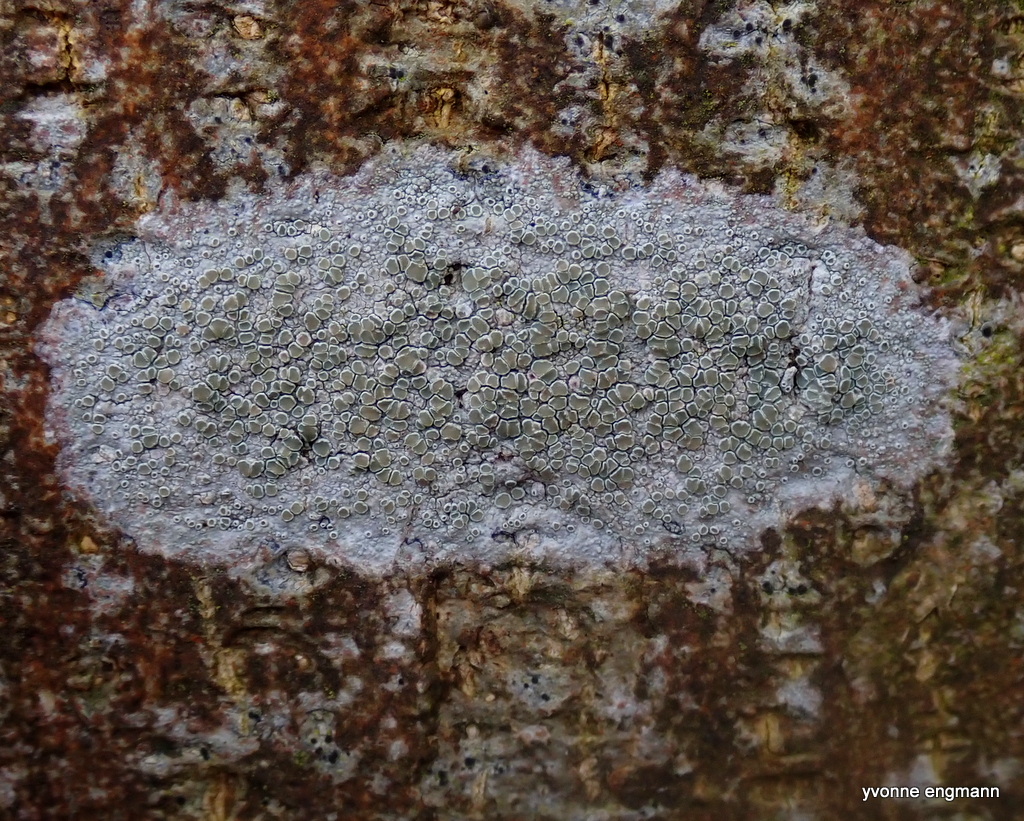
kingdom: Fungi
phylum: Ascomycota
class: Lecanoromycetes
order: Lecanorales
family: Lecanoraceae
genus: Lecanora
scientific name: Lecanora chlarotera
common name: brun kantskivelav
